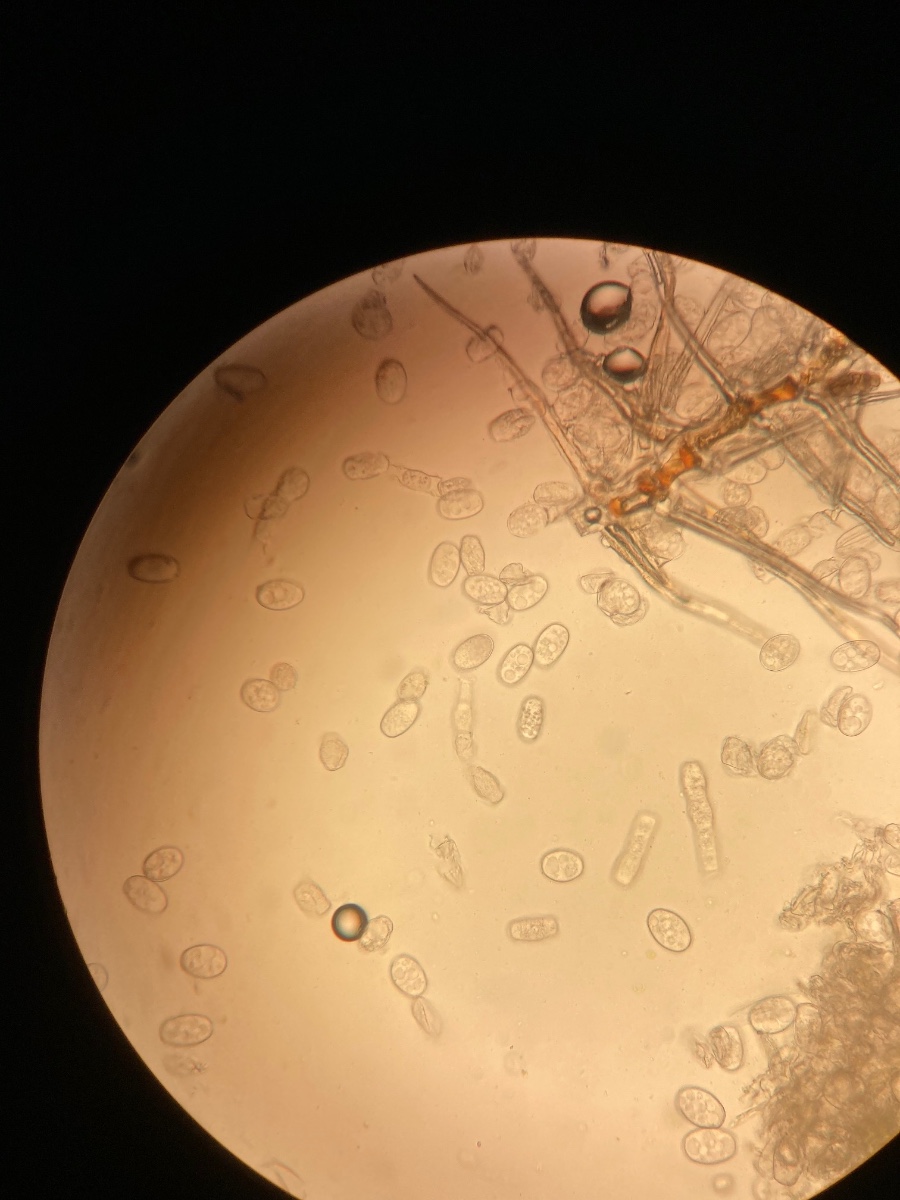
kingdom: Fungi
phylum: Ascomycota
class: Leotiomycetes
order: Helotiales
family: Erysiphaceae
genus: Golovinomyces
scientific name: Golovinomyces cichoracearum
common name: kurvblomst-meldug
